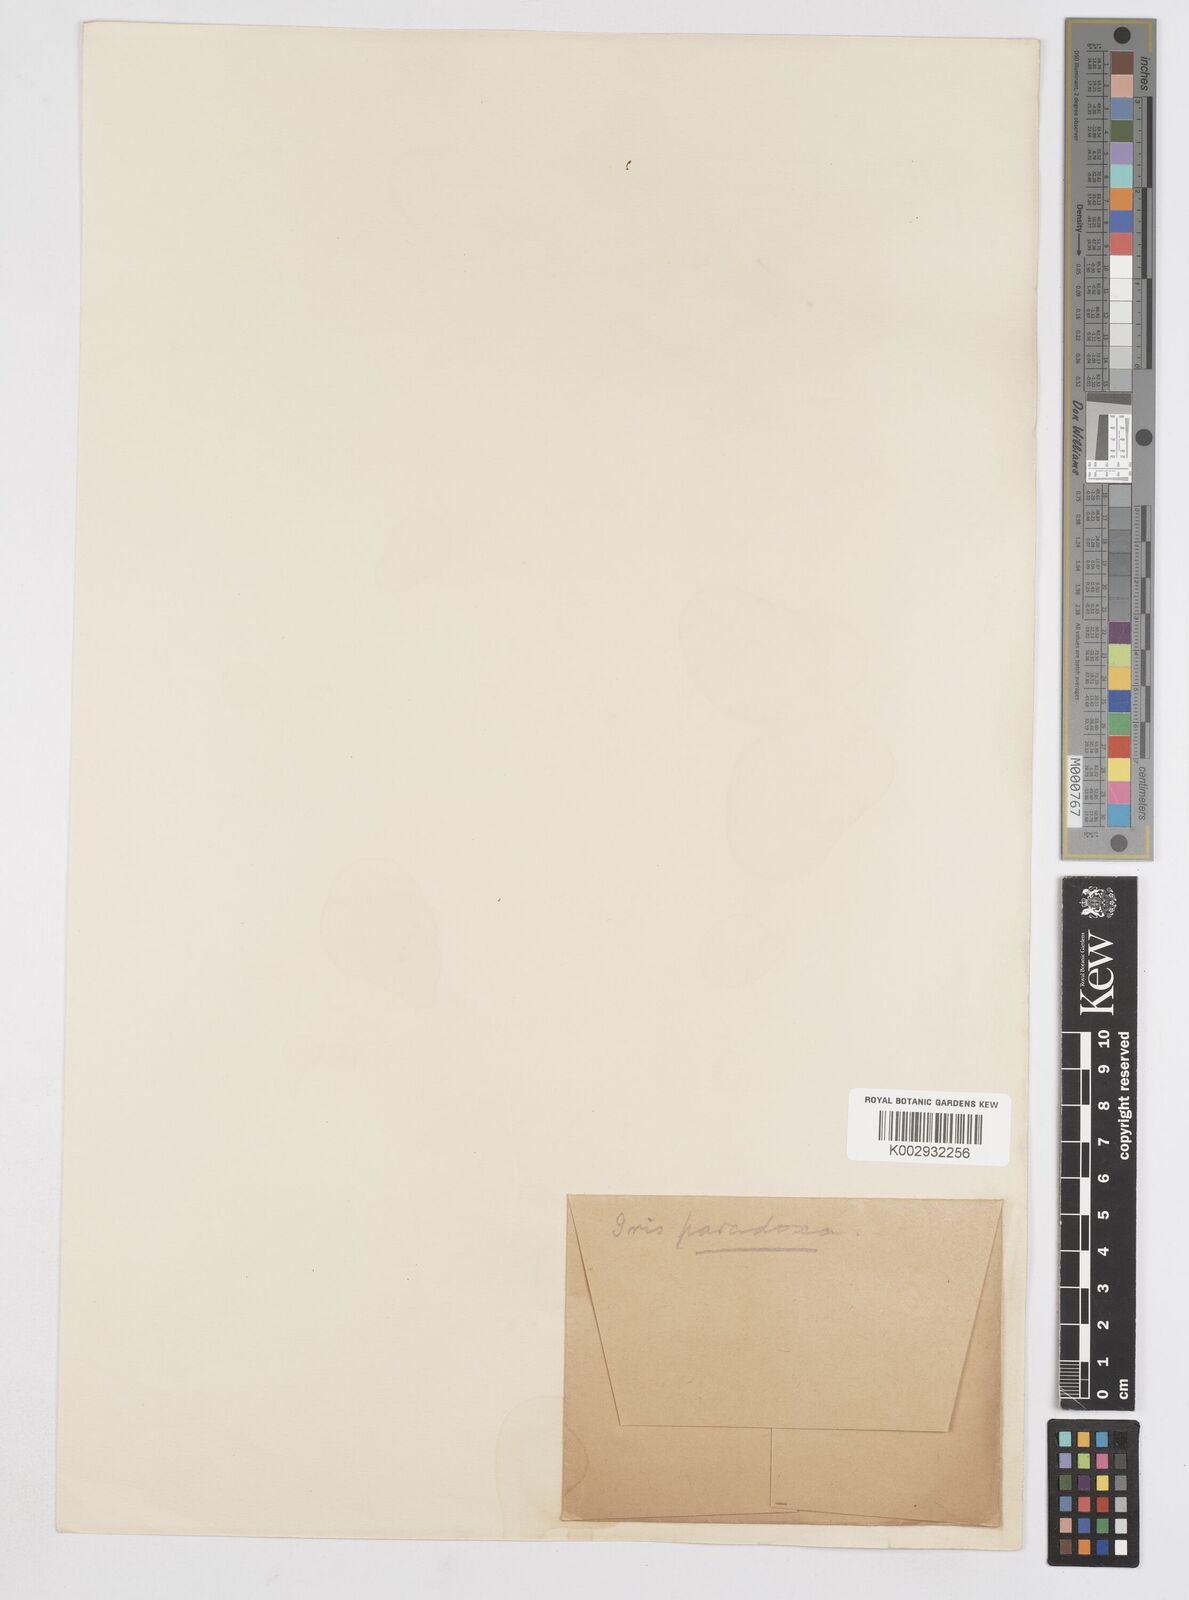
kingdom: Plantae
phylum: Tracheophyta
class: Liliopsida
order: Asparagales
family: Iridaceae
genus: Iris
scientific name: Iris paradoxa
